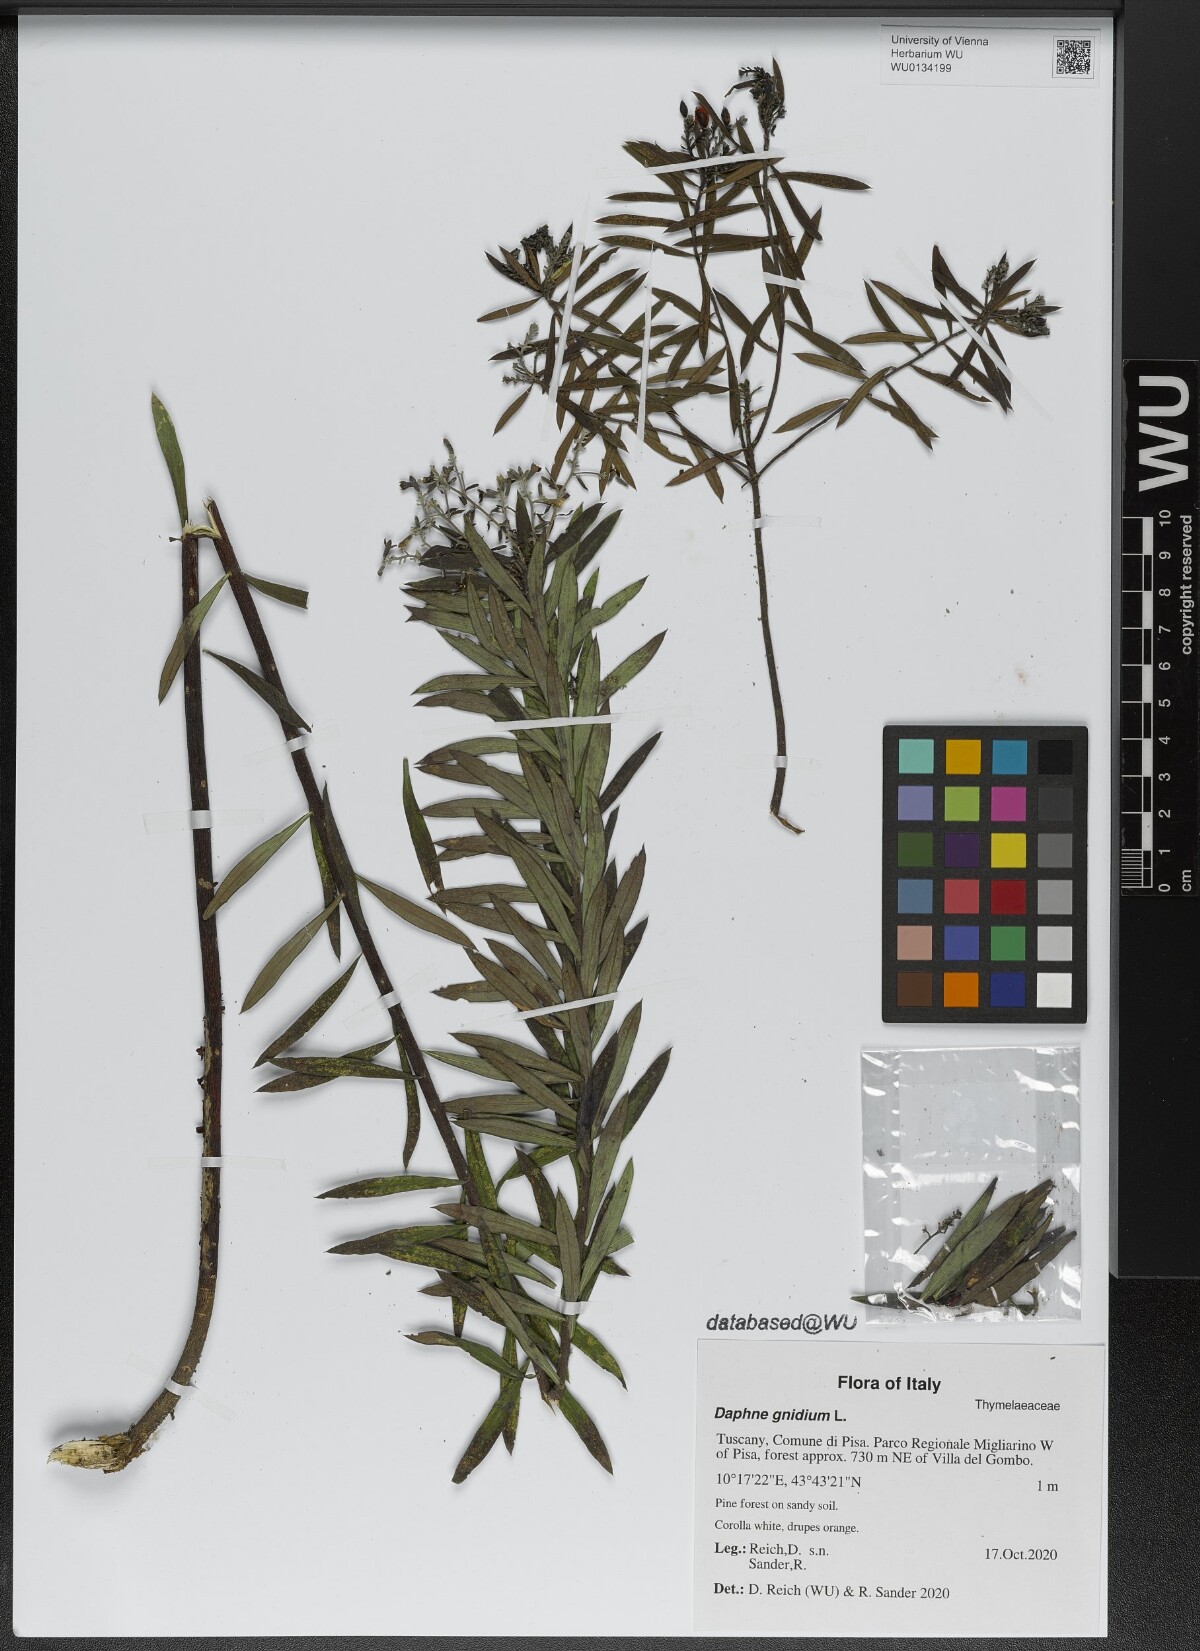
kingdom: Plantae
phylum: Tracheophyta
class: Magnoliopsida
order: Malvales
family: Thymelaeaceae
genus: Daphne
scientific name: Daphne gnidium
